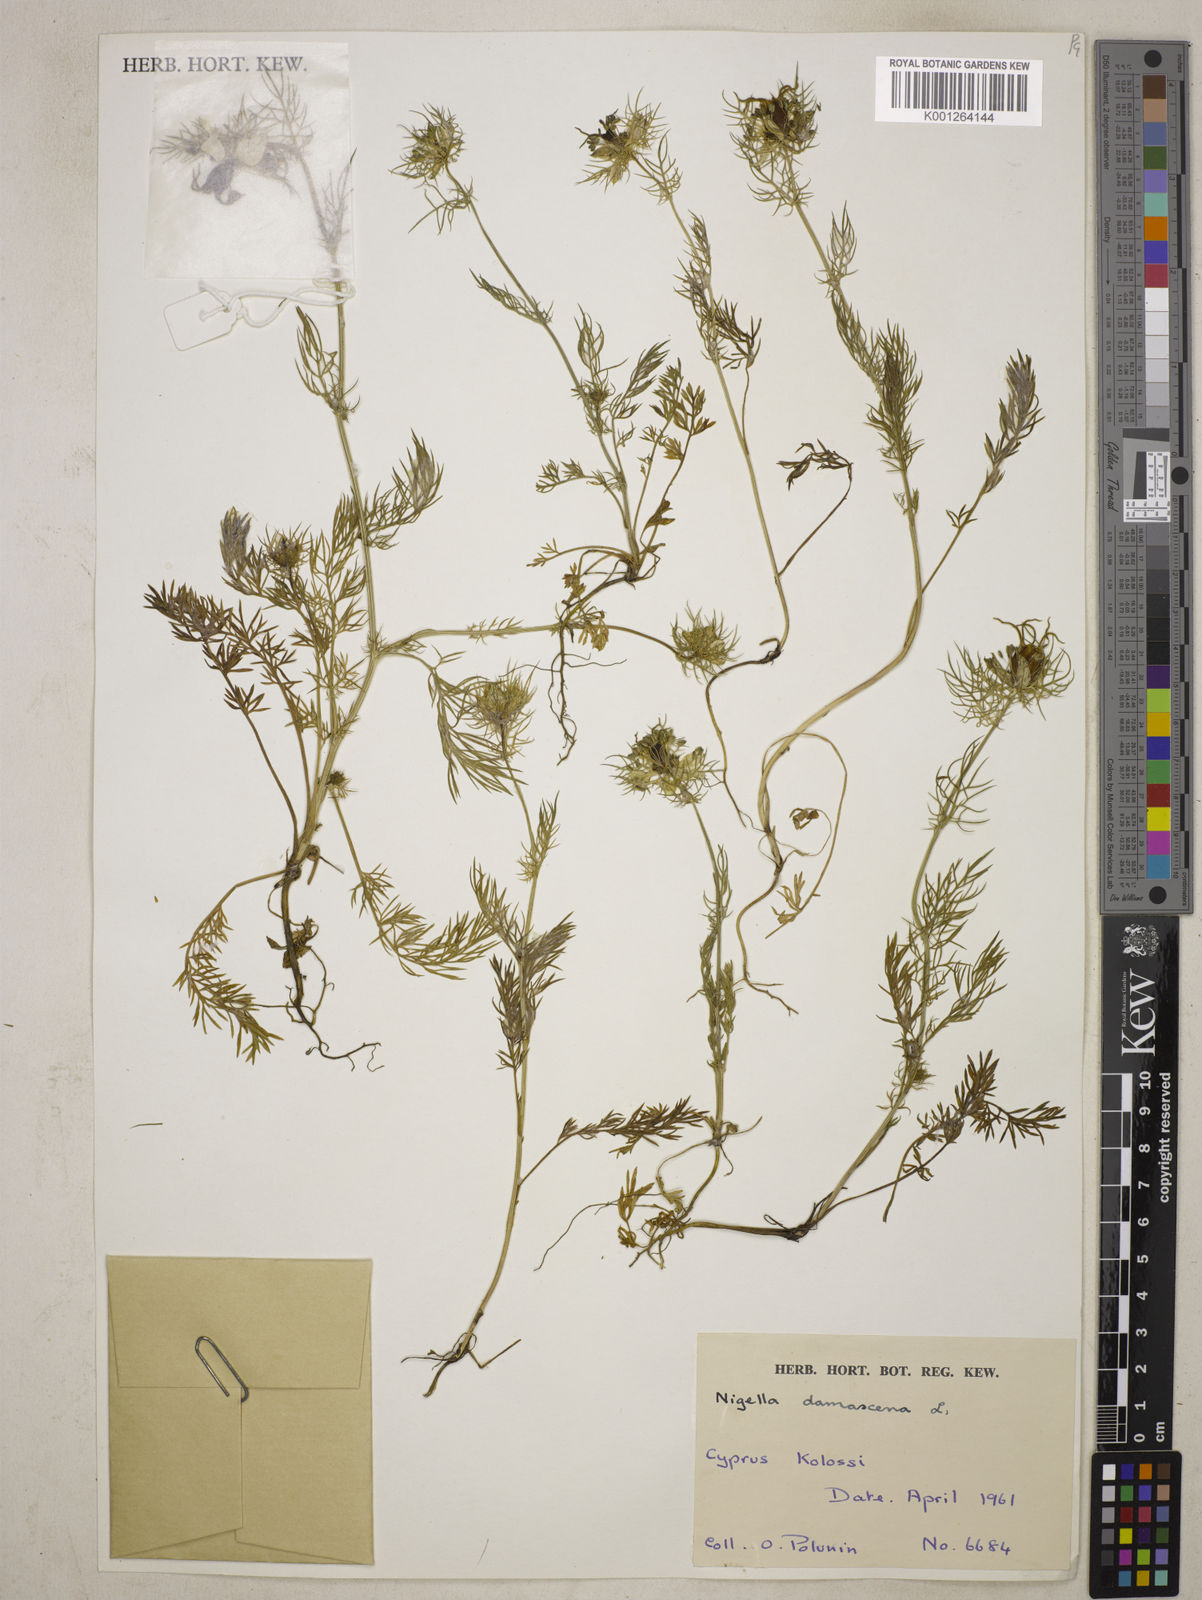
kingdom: Plantae
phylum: Tracheophyta
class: Magnoliopsida
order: Ranunculales
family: Ranunculaceae
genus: Nigella
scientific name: Nigella damascena
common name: Love-in-a-mist
